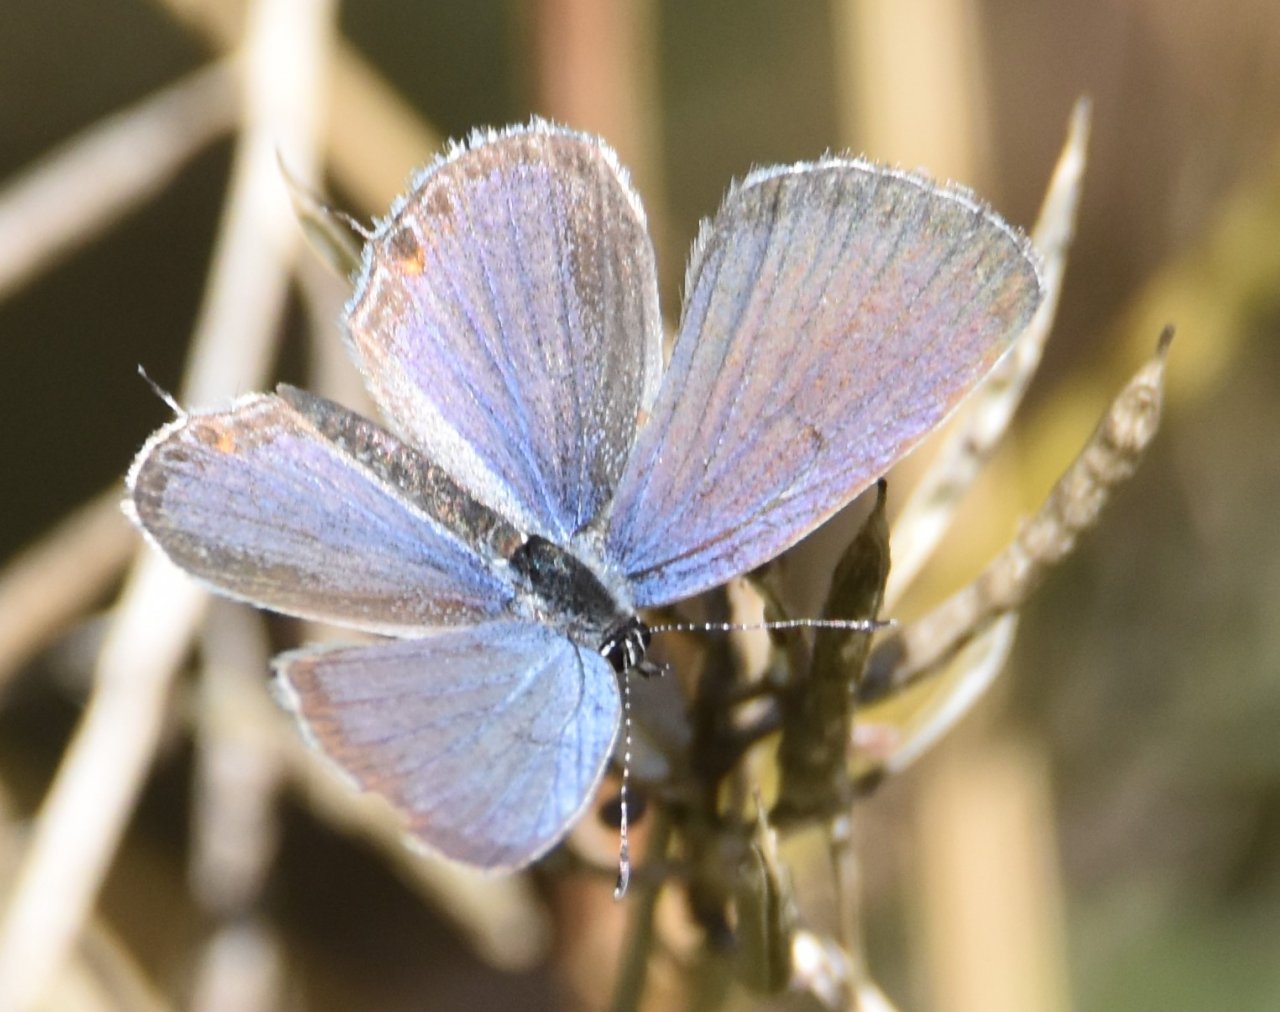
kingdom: Animalia
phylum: Arthropoda
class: Insecta
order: Lepidoptera
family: Lycaenidae
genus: Elkalyce
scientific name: Elkalyce comyntas
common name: Eastern Tailed-Blue
